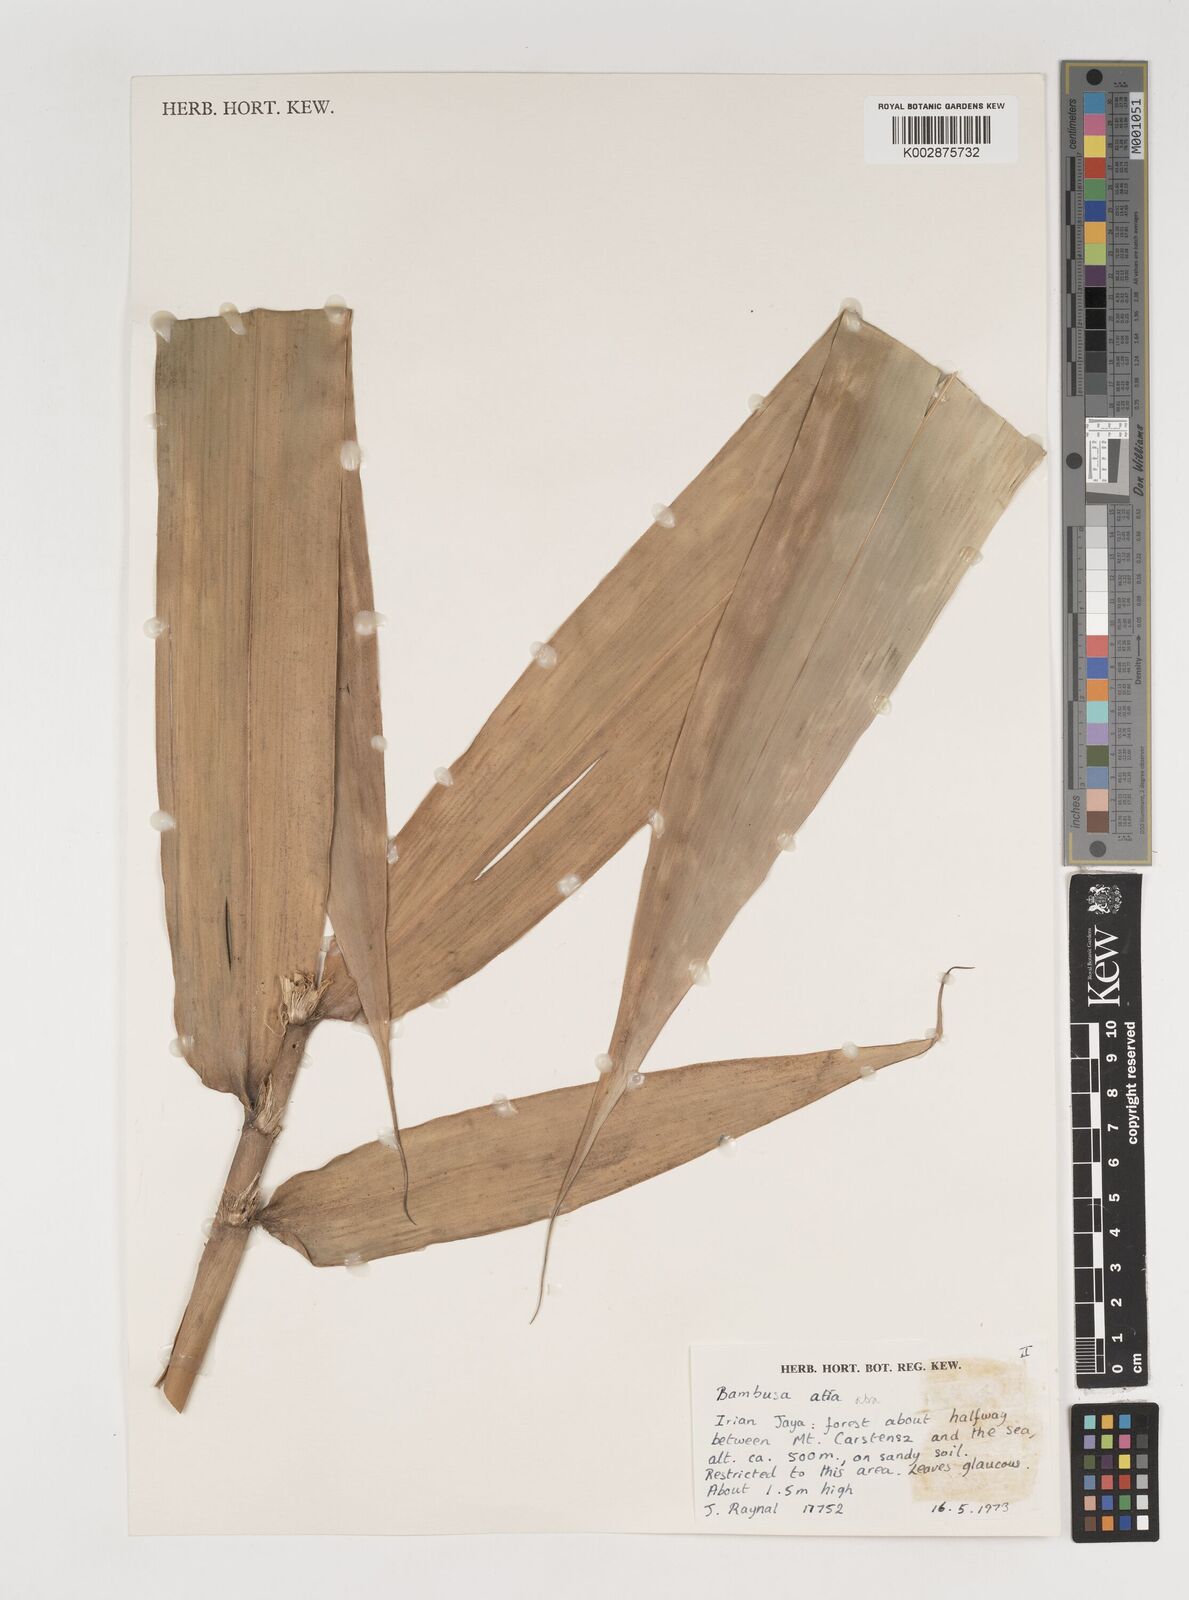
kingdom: Plantae
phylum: Tracheophyta
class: Liliopsida
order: Poales
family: Poaceae
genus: Neololeba
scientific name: Neololeba atra
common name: Cape bamboo
